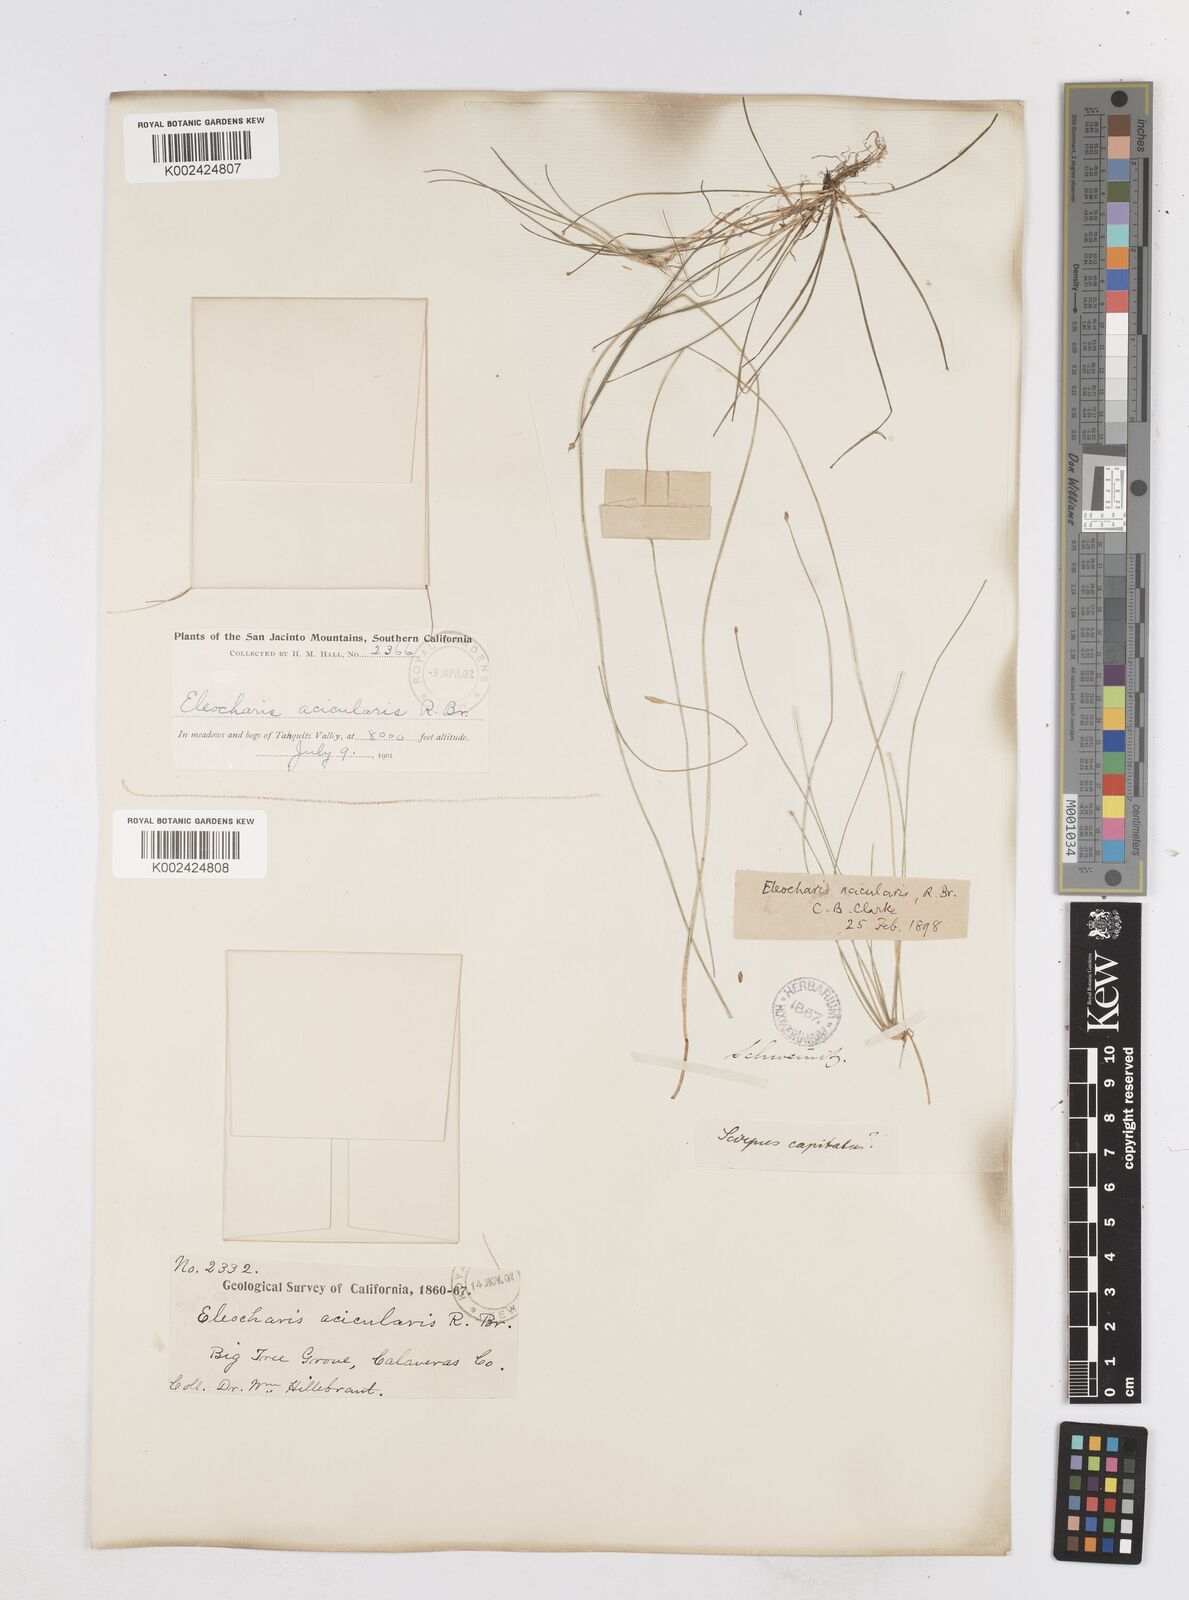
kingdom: Plantae
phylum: Tracheophyta
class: Liliopsida
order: Poales
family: Cyperaceae
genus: Eleocharis
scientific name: Eleocharis acicularis
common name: Needle spike-rush
